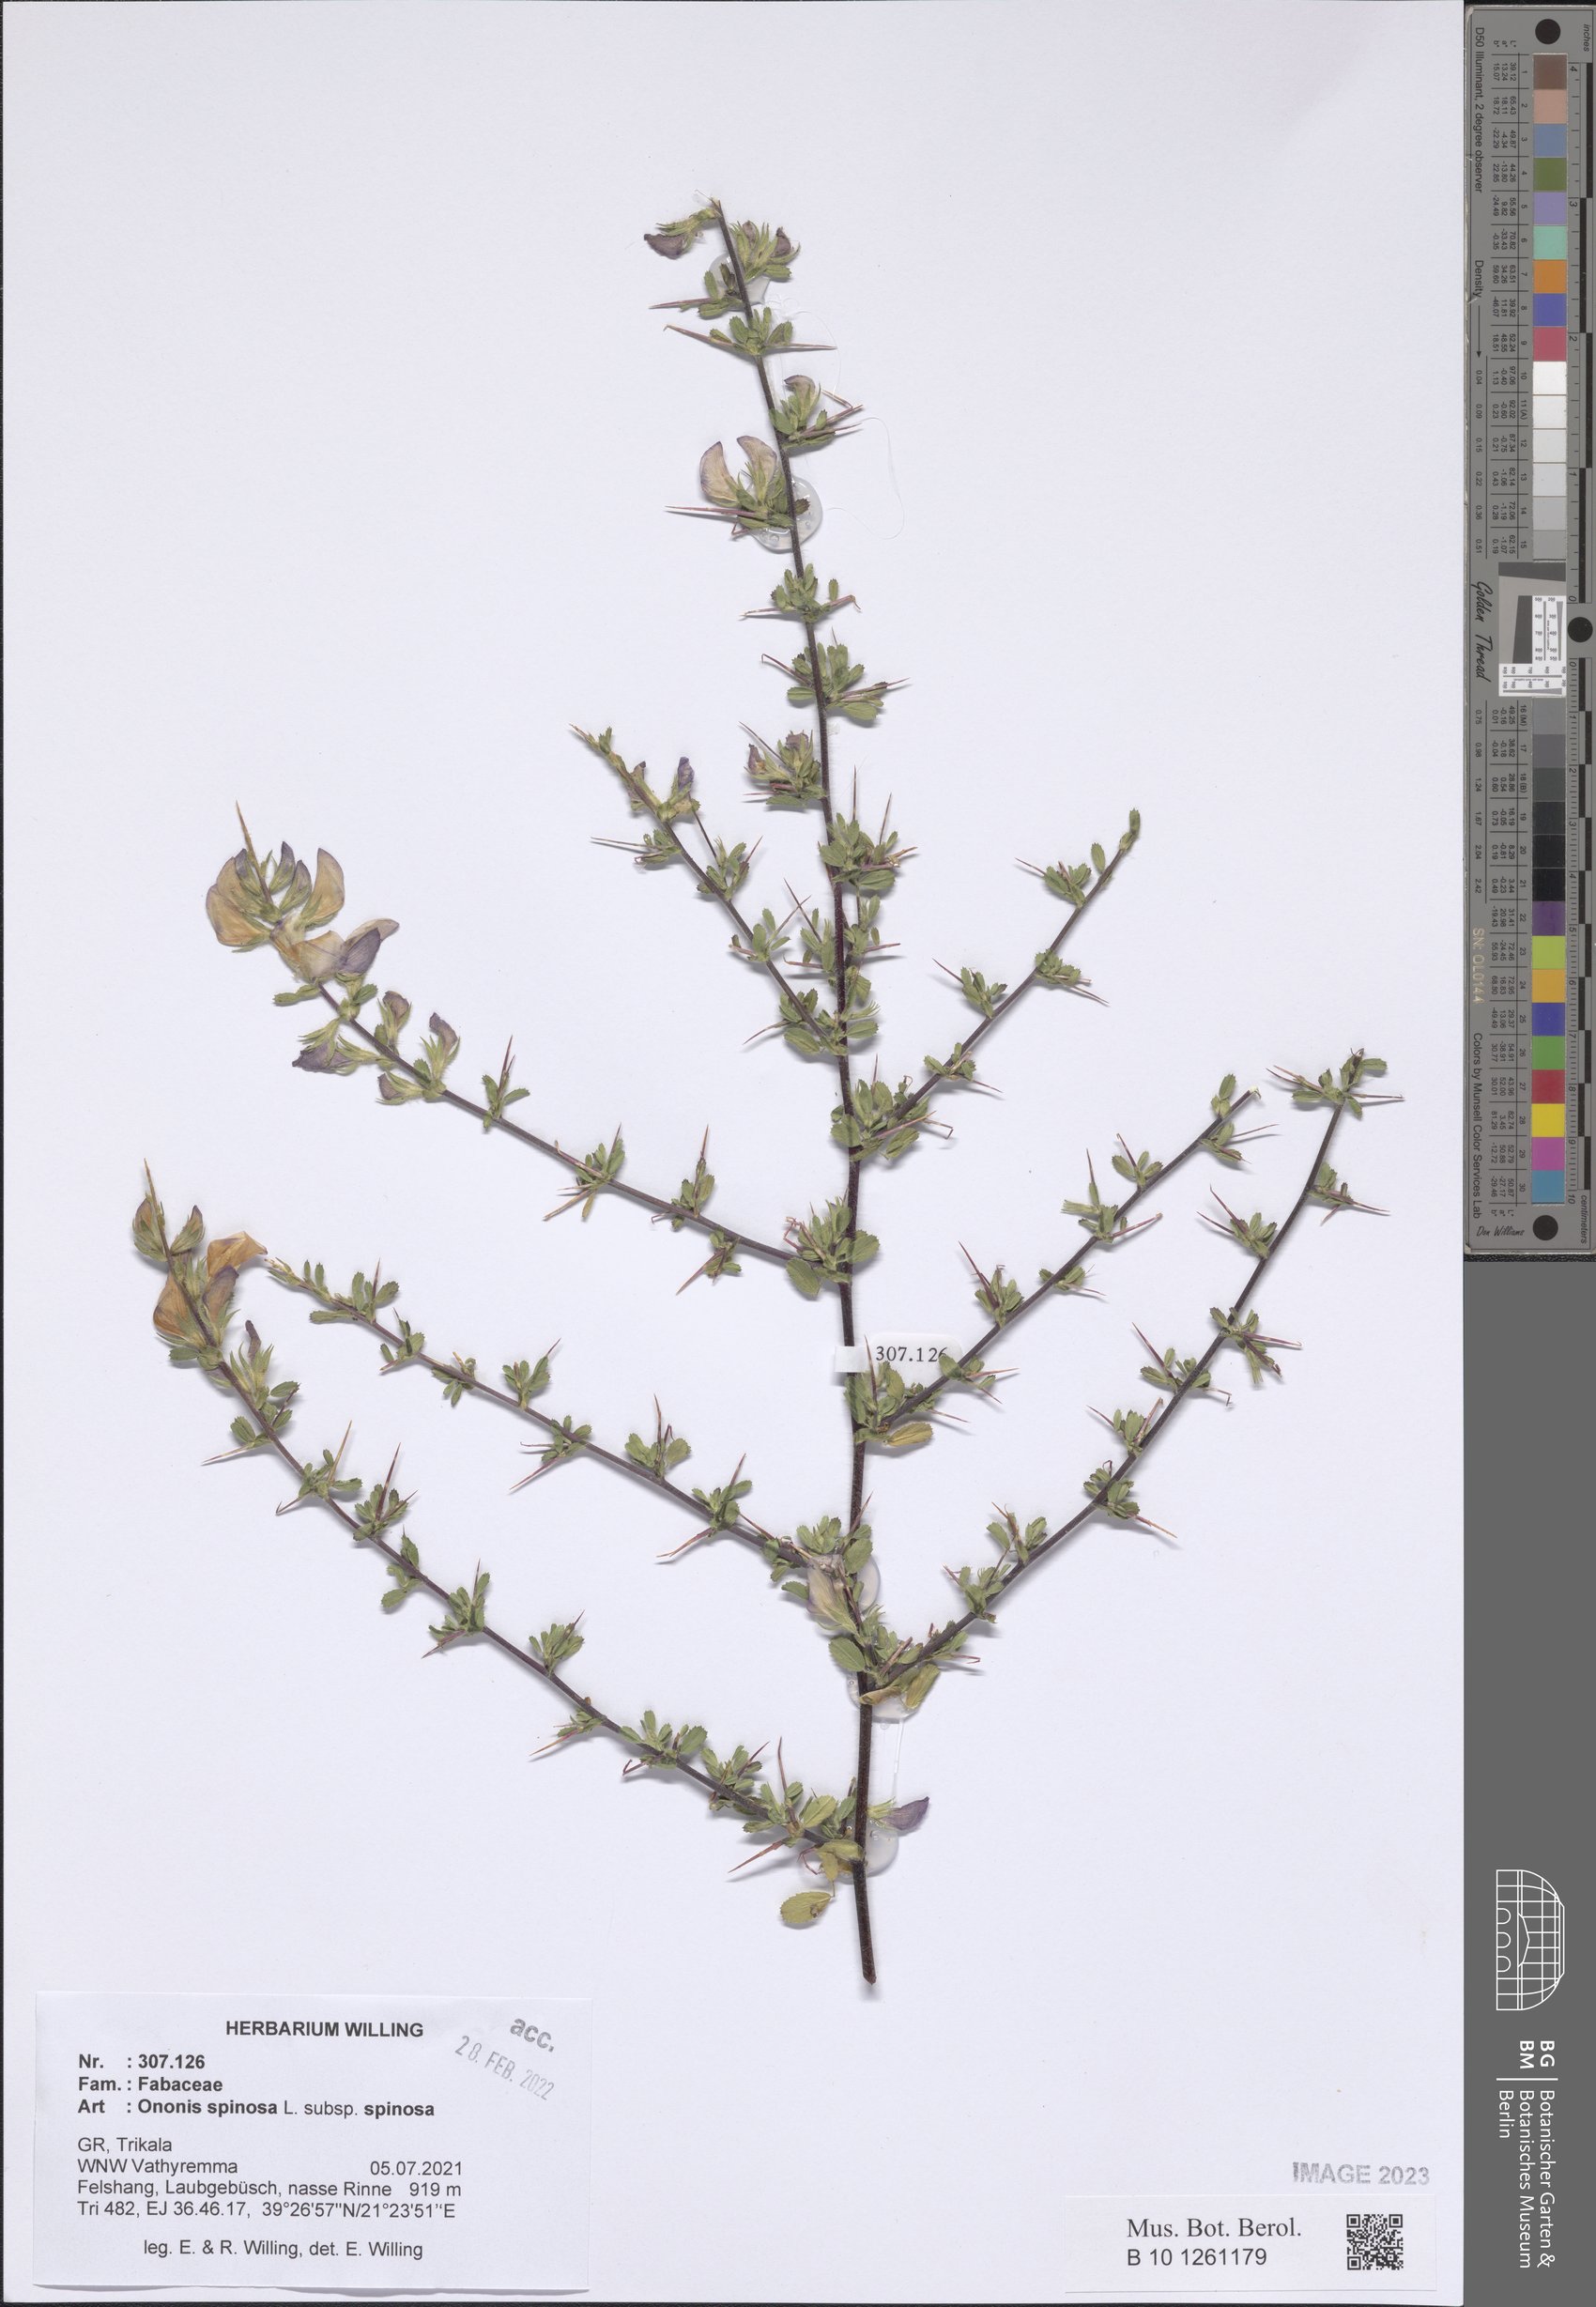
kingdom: Plantae
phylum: Tracheophyta
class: Magnoliopsida
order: Fabales
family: Fabaceae
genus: Ononis
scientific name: Ononis spinosa
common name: Spiny restharrow
